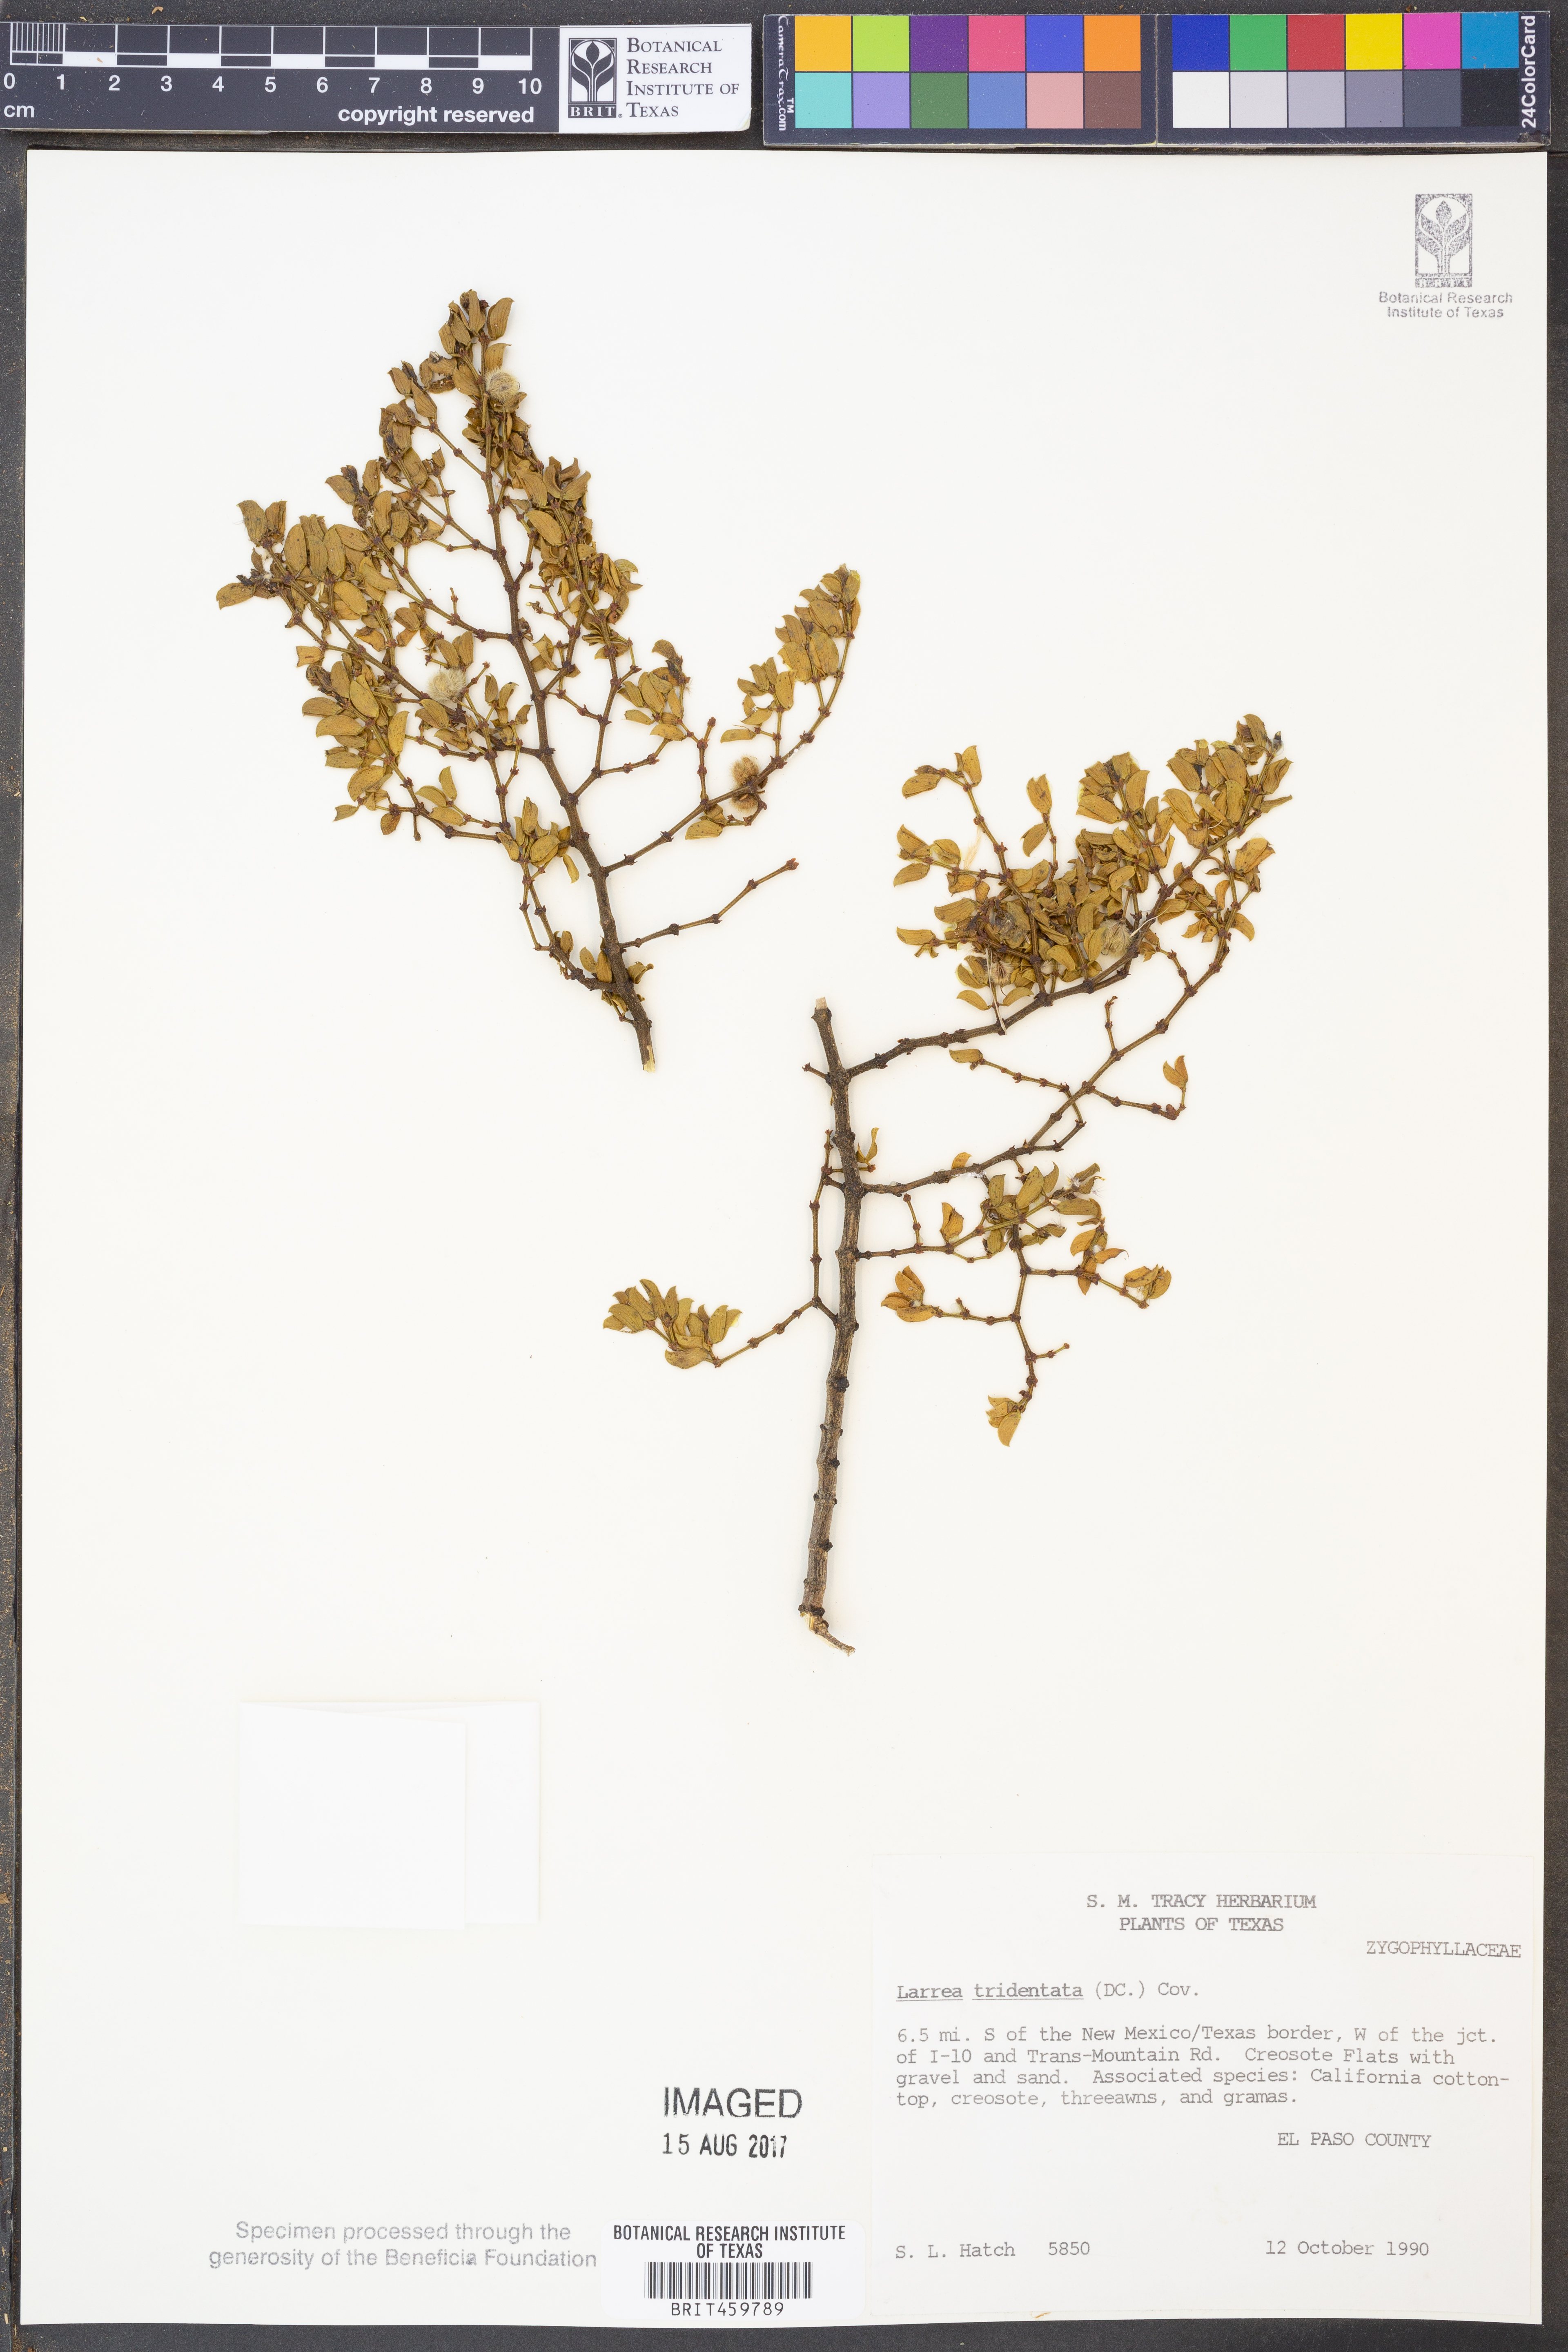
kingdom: Plantae
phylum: Tracheophyta
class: Magnoliopsida
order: Zygophyllales
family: Zygophyllaceae
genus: Larrea
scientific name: Larrea tridentata
